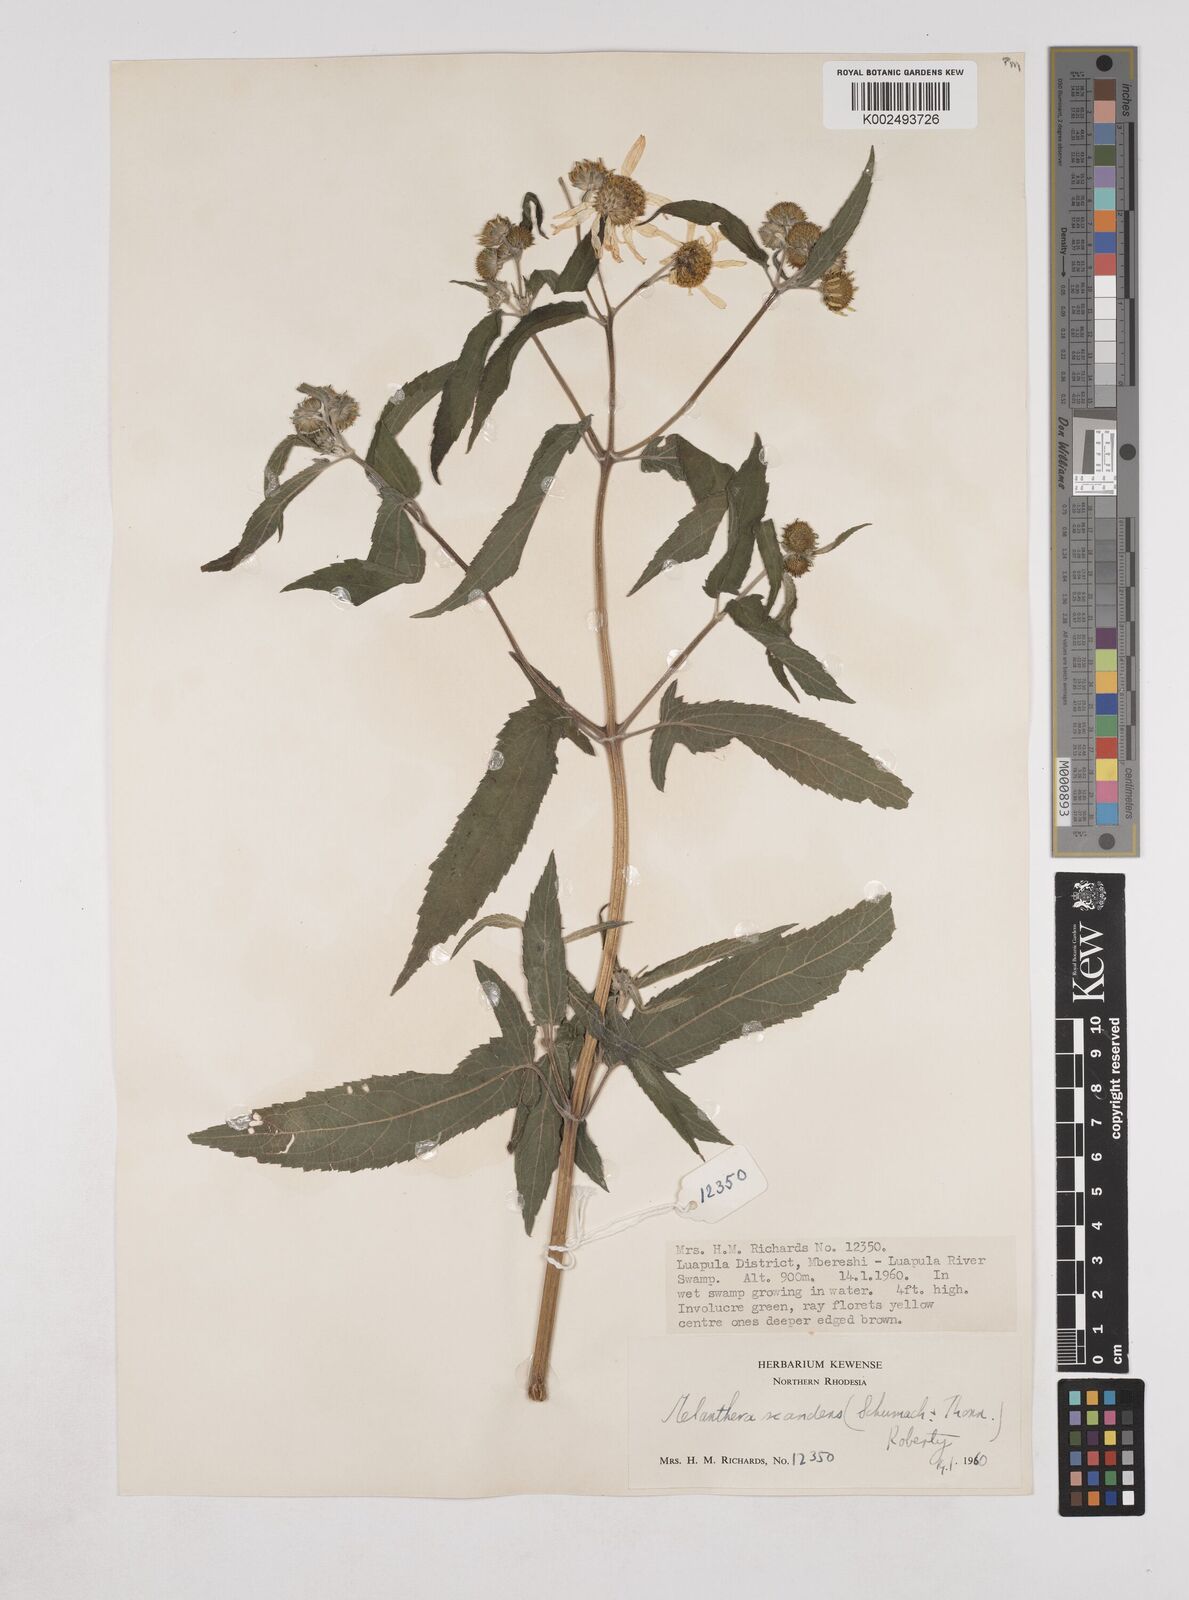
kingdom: Plantae
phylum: Tracheophyta
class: Magnoliopsida
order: Asterales
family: Asteraceae
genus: Lipotriche
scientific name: Lipotriche scandens
